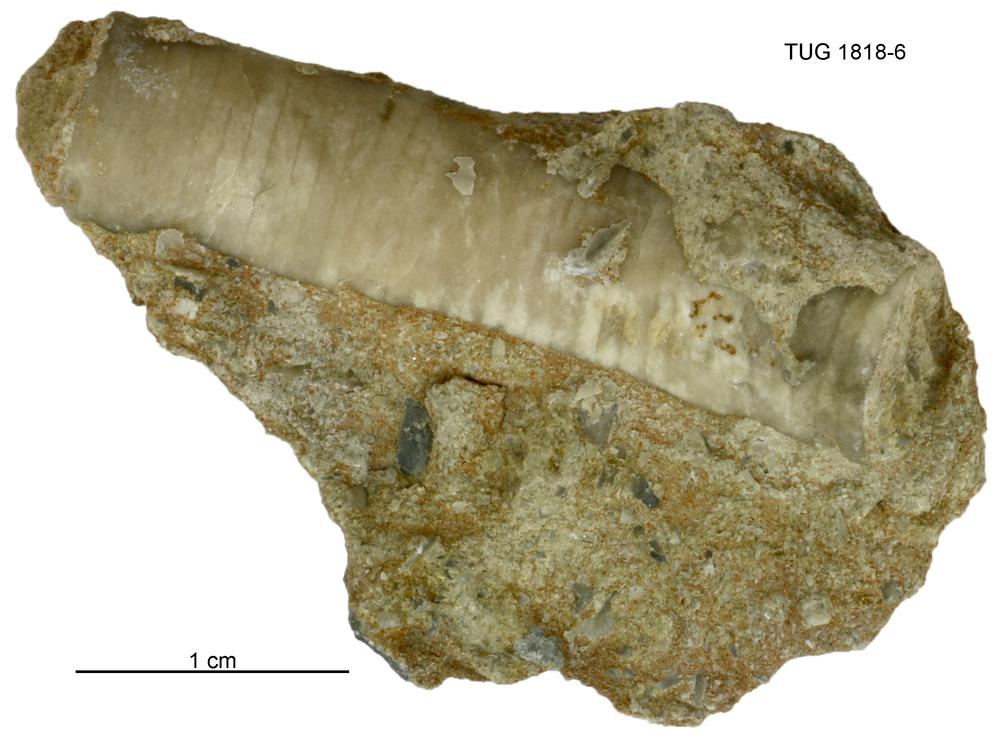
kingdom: Animalia
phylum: Mollusca
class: Cephalopoda
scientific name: Cephalopoda
